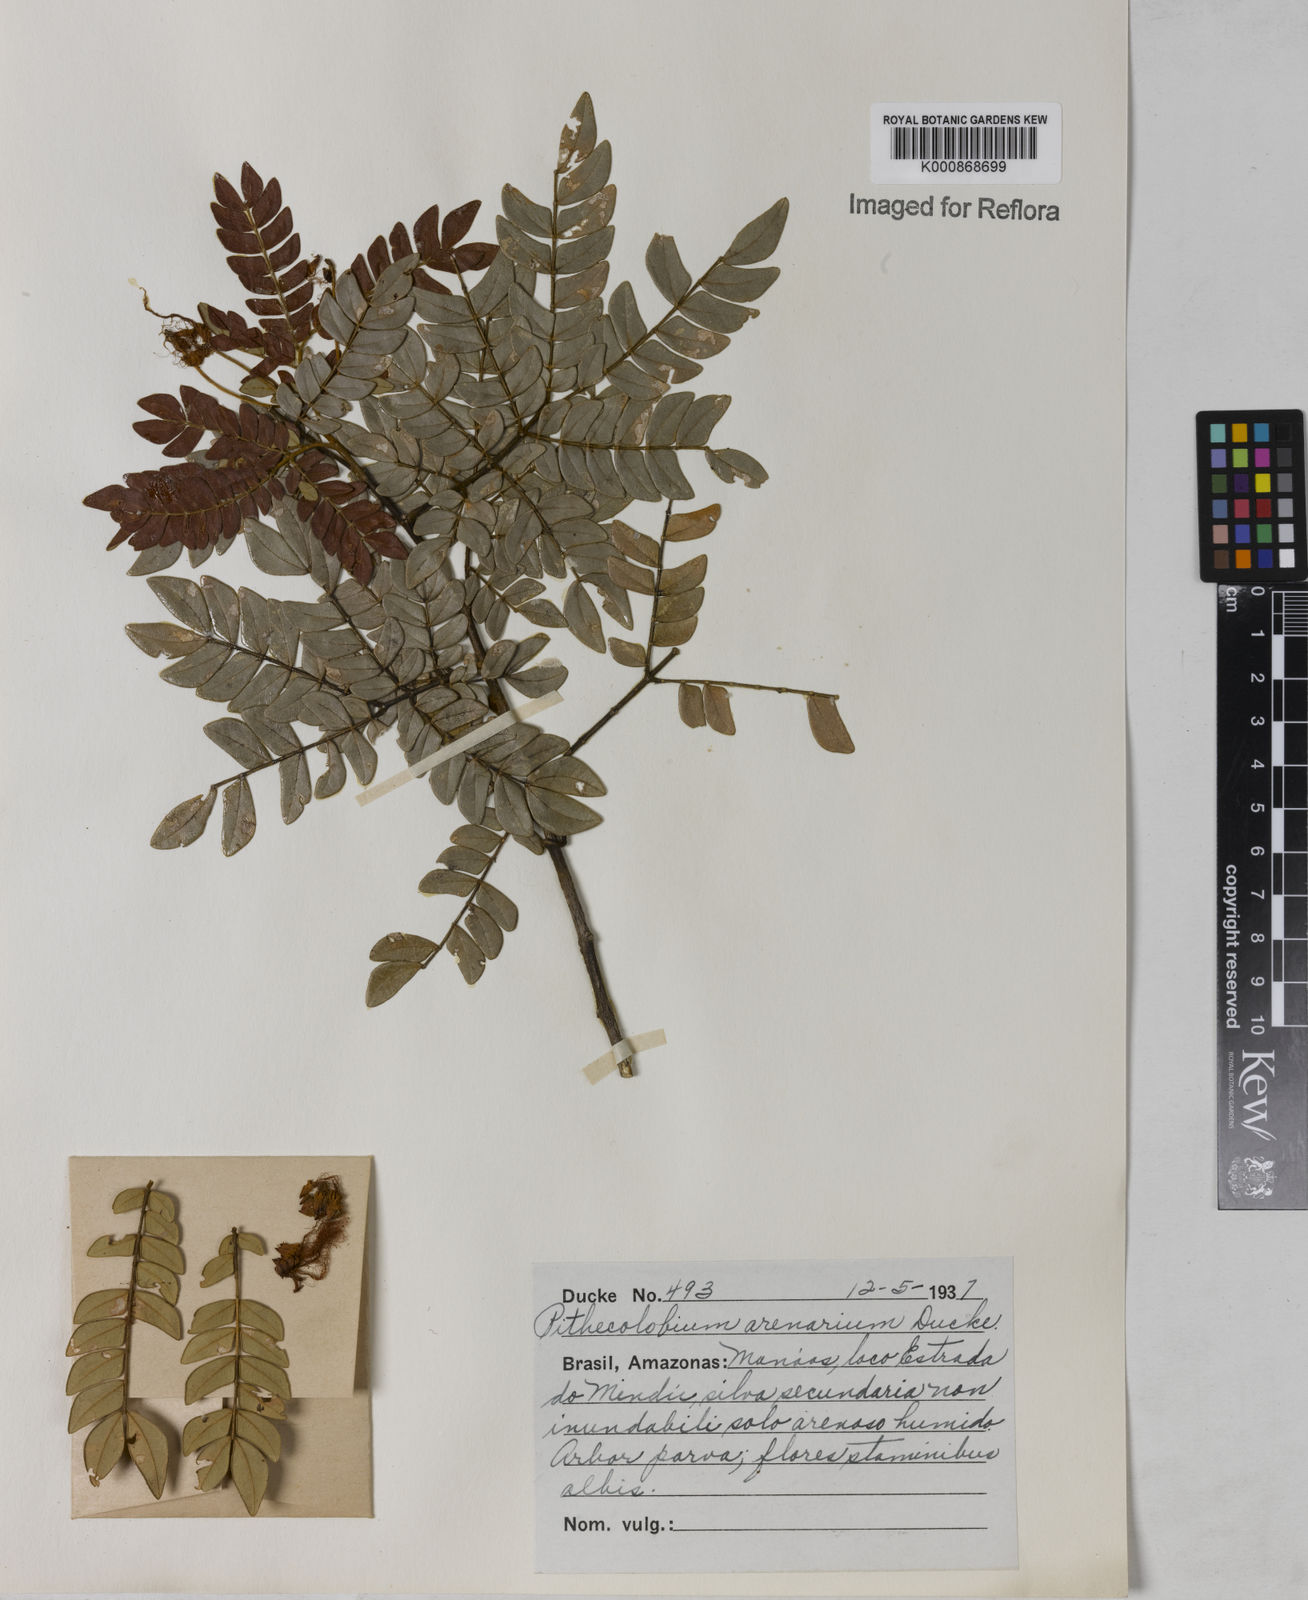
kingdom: Plantae
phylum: Tracheophyta
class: Magnoliopsida
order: Fabales
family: Fabaceae
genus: Abarema
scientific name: Abarema
